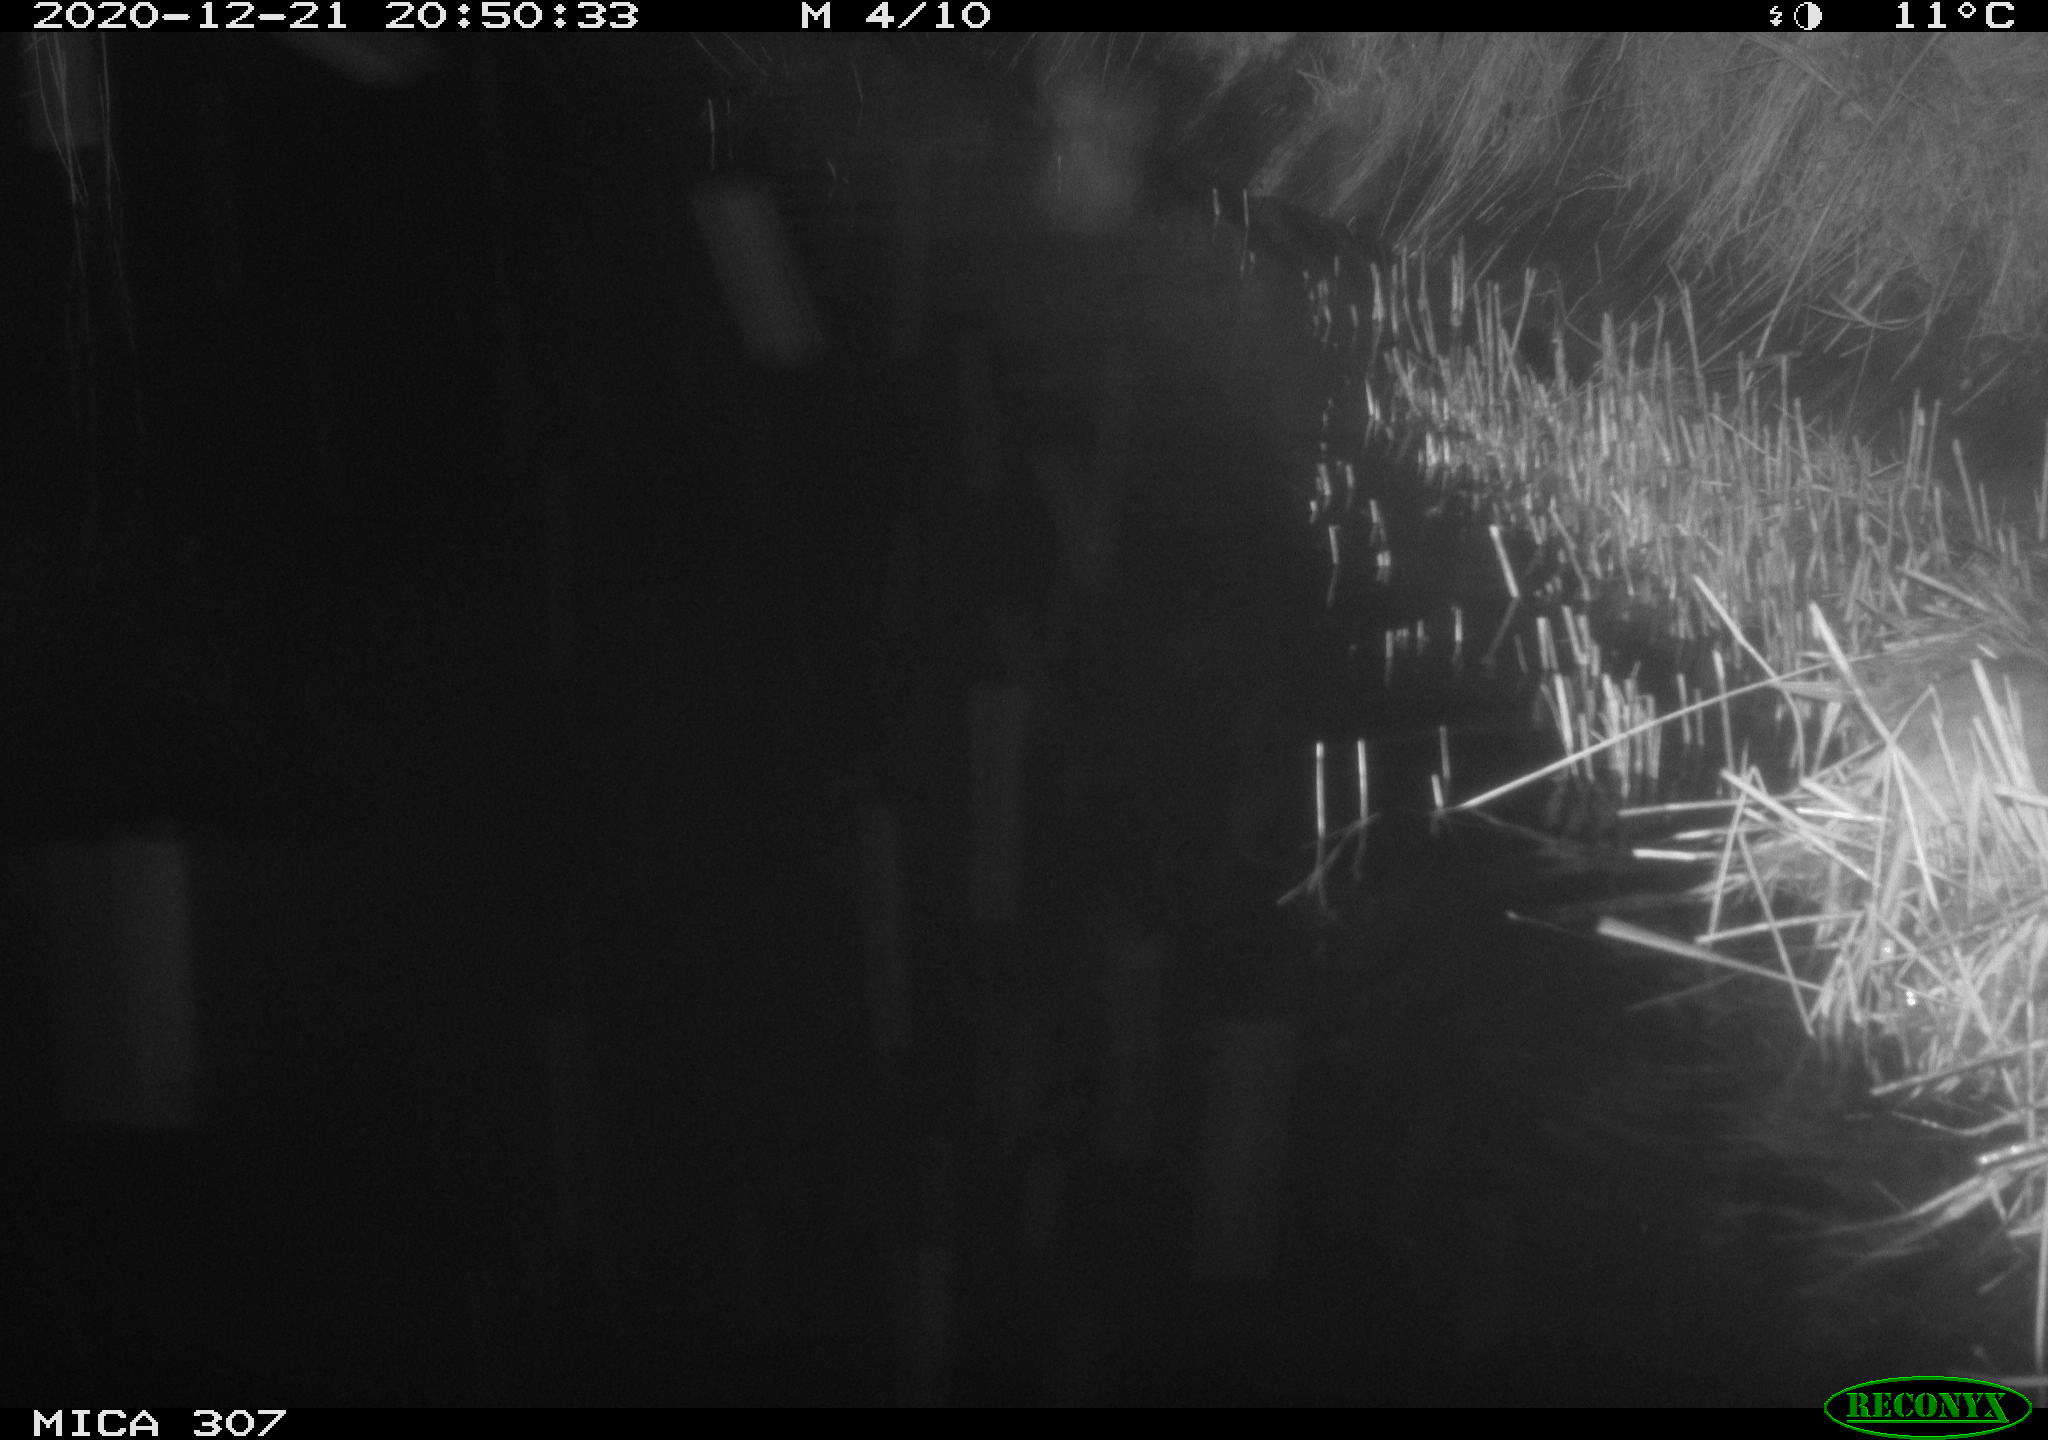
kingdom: Animalia
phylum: Chordata
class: Mammalia
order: Rodentia
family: Muridae
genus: Rattus
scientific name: Rattus norvegicus
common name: Brown rat
